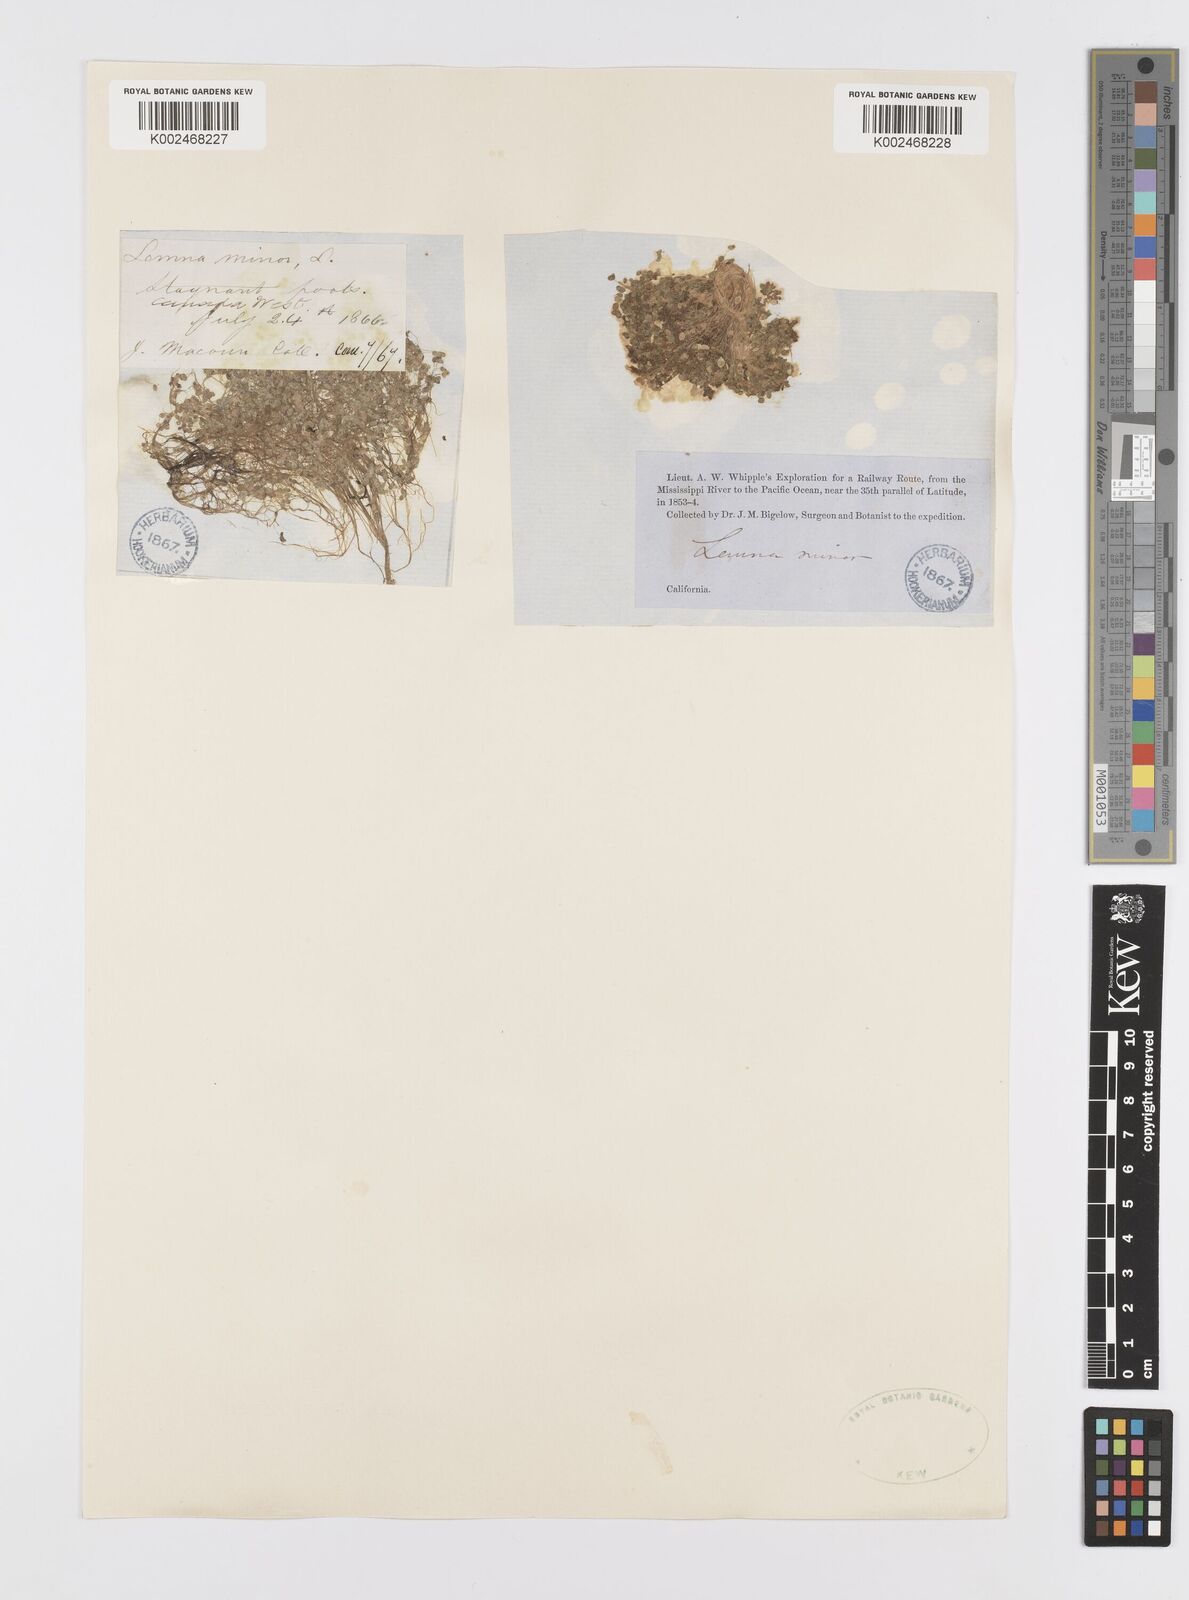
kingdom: Plantae
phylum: Tracheophyta
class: Liliopsida
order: Alismatales
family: Araceae
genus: Lemna
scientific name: Lemna minor
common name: Common duckweed
